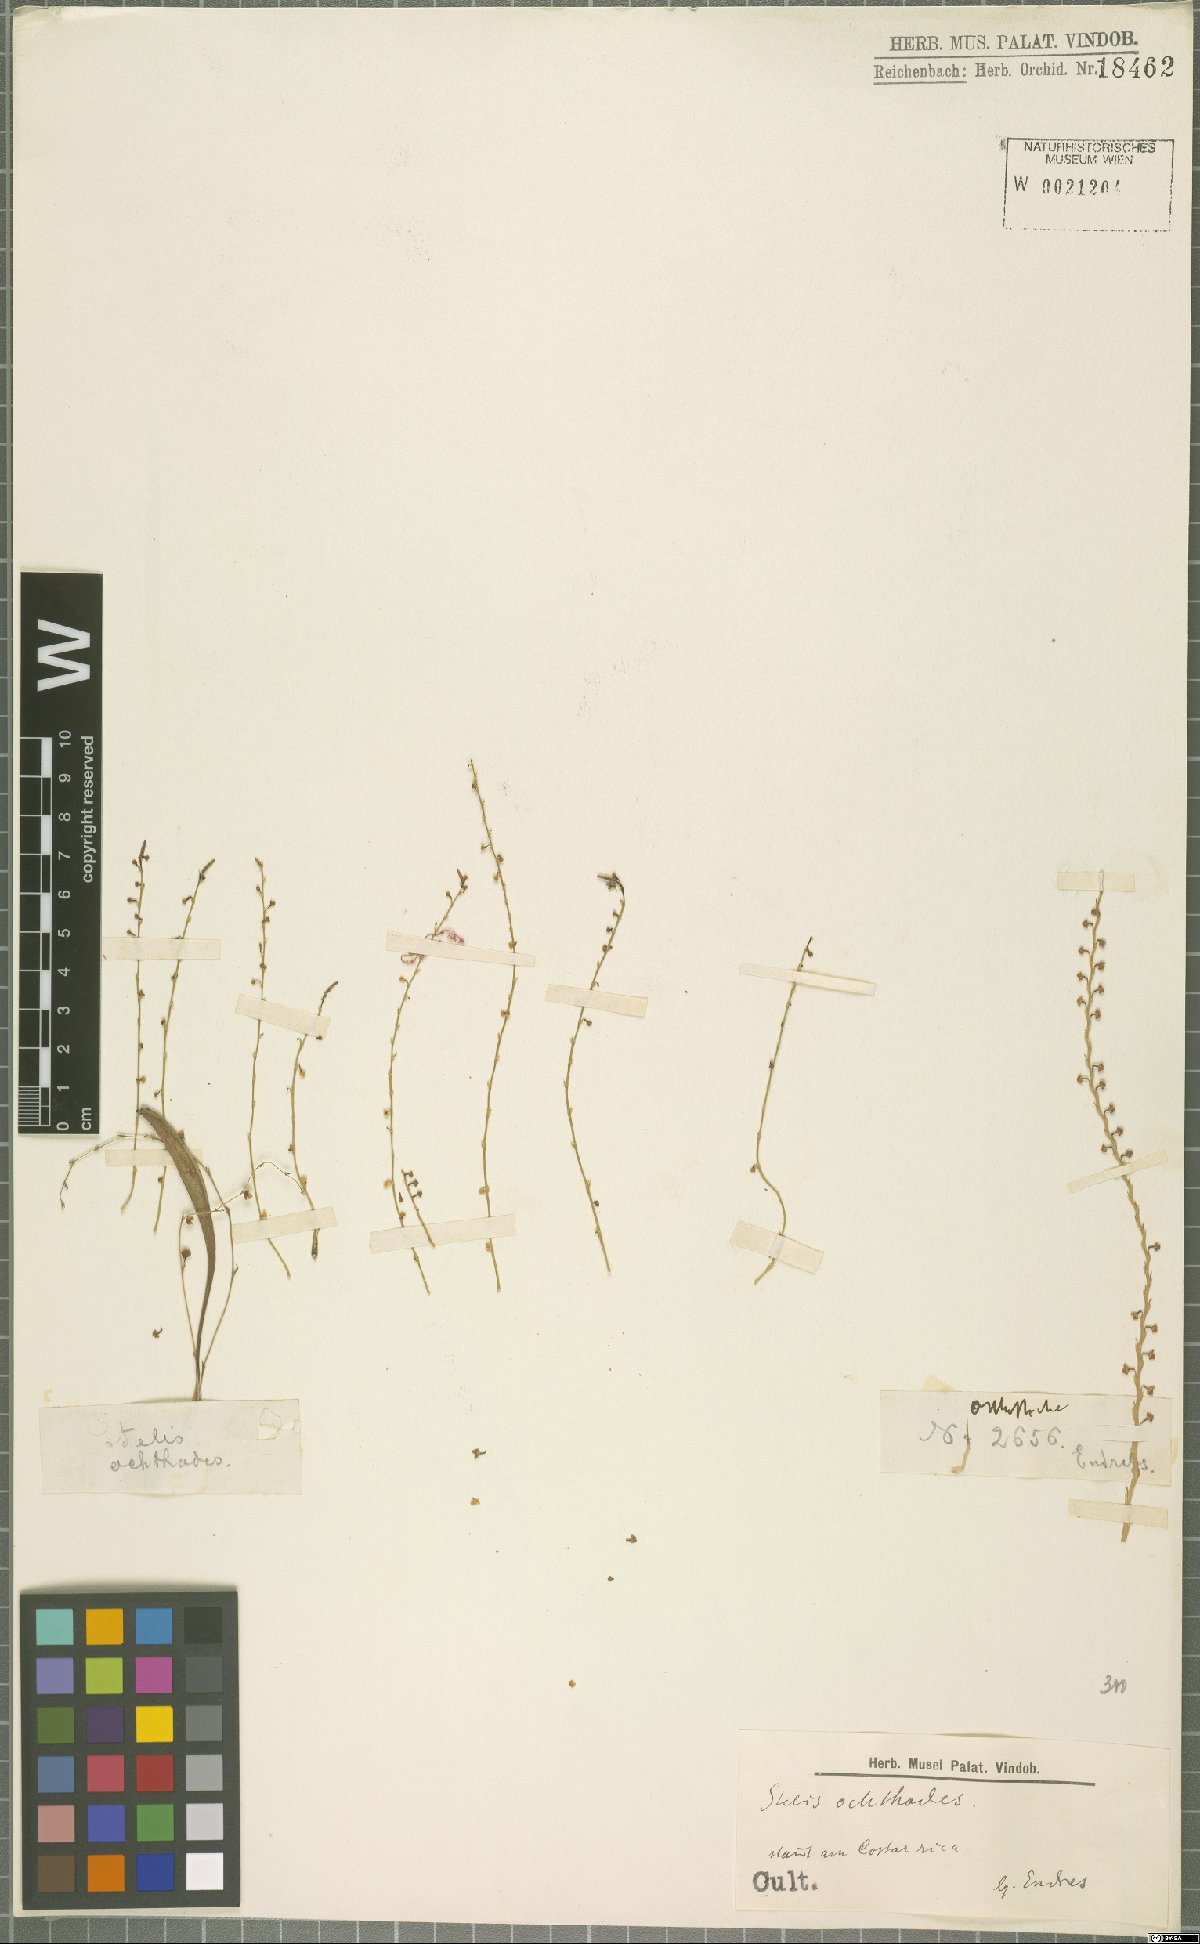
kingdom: Plantae
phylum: Tracheophyta
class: Liliopsida
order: Asparagales
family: Orchidaceae
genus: Stelis
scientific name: Stelis
